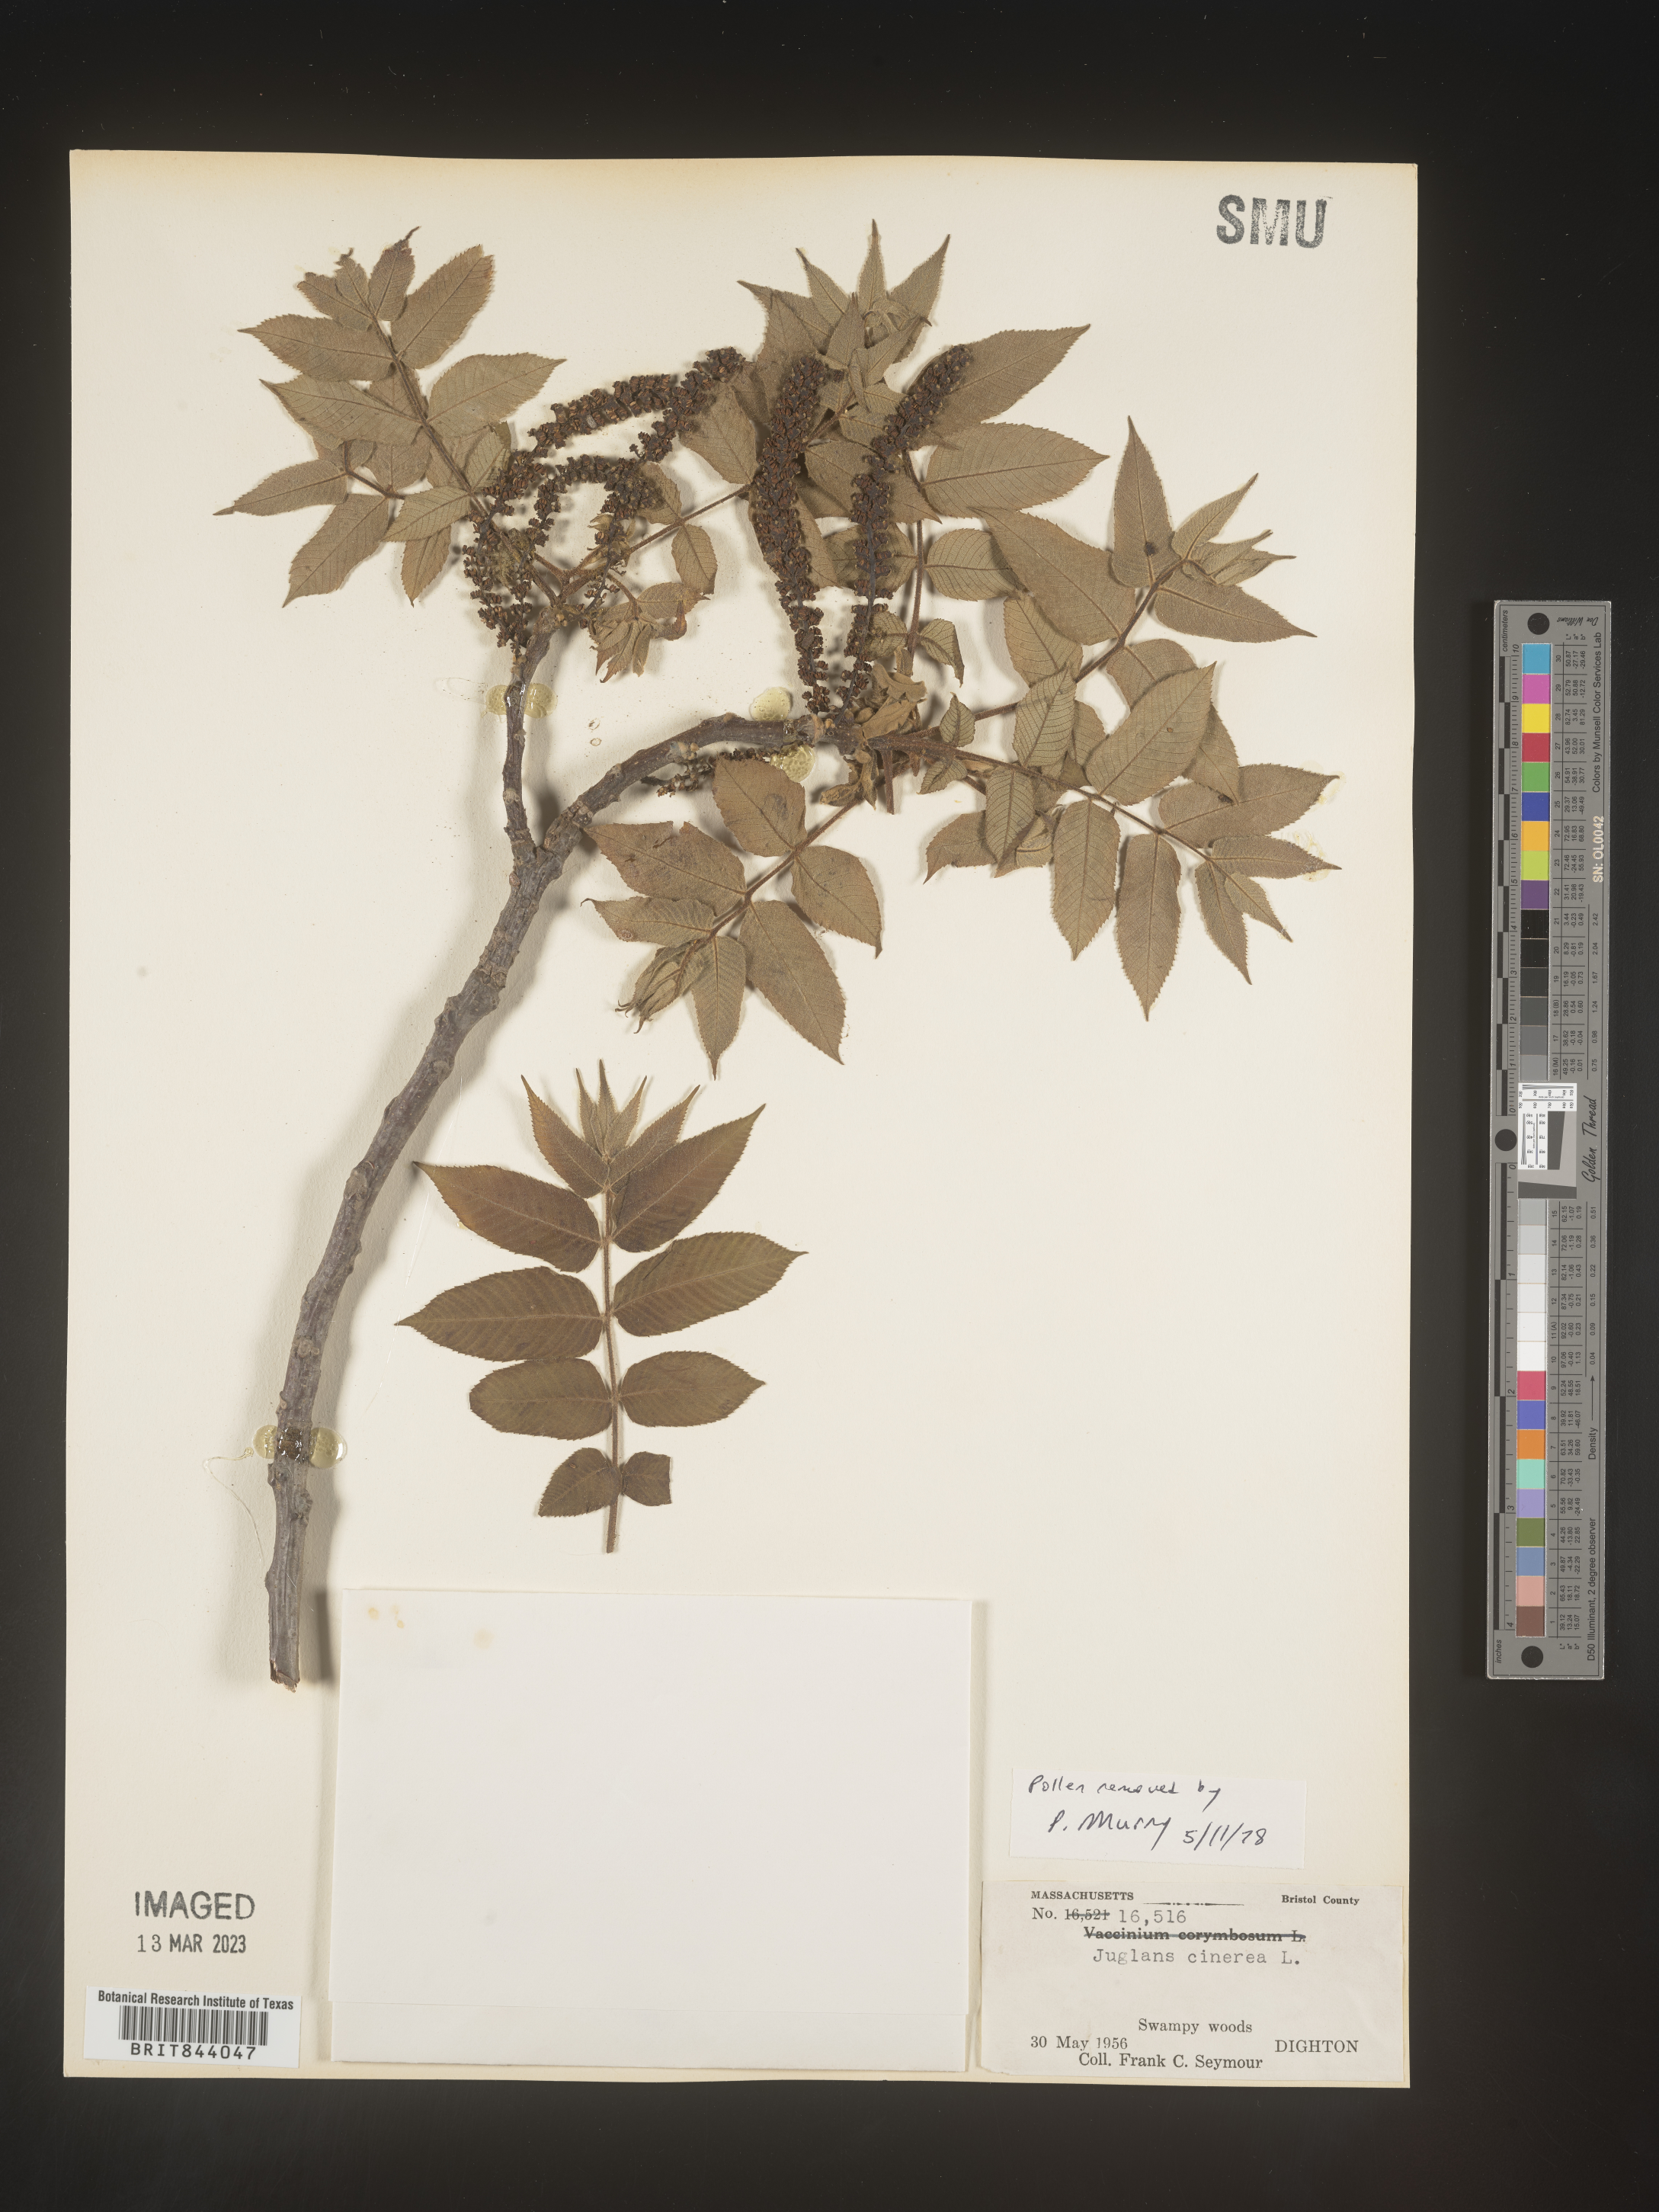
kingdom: Plantae
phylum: Tracheophyta
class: Magnoliopsida
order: Fagales
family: Juglandaceae
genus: Juglans
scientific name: Juglans cinerea
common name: Butternut
